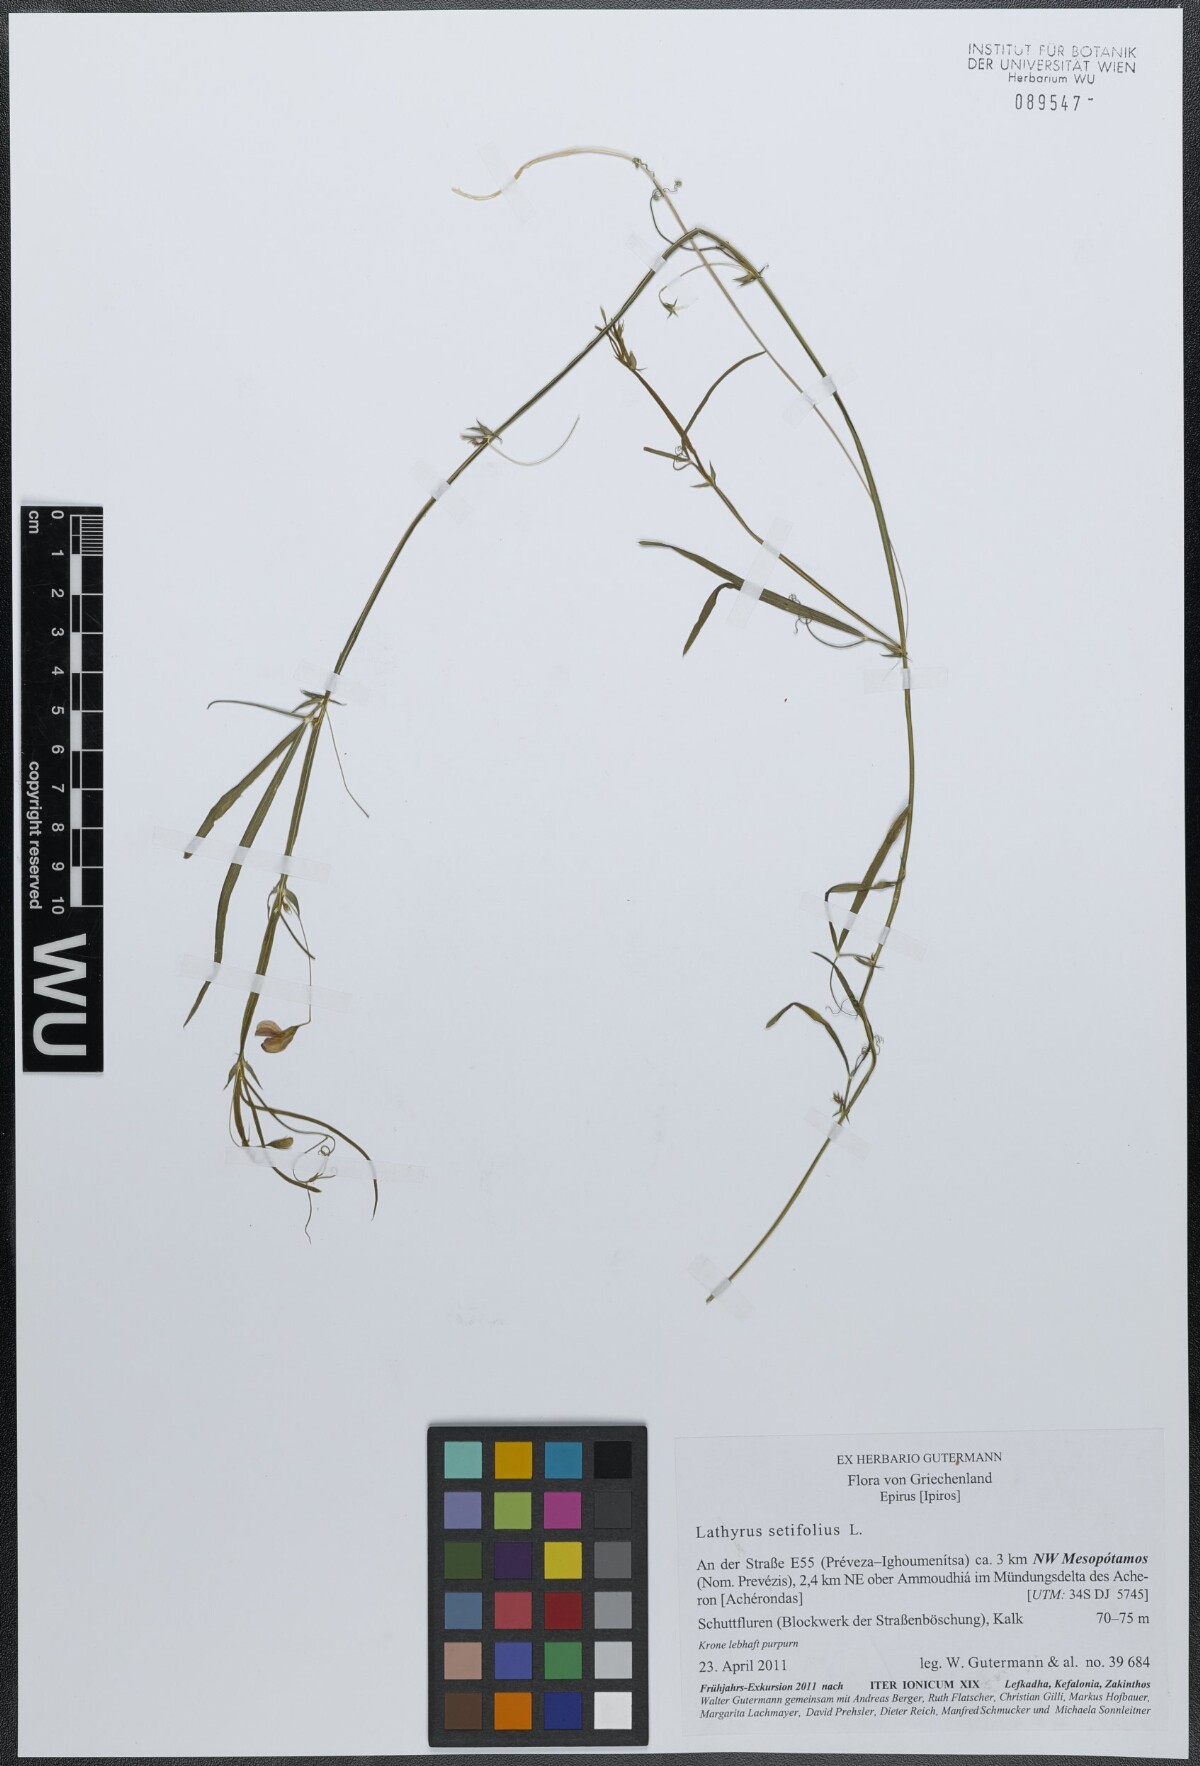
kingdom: Plantae
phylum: Tracheophyta
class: Magnoliopsida
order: Fabales
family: Fabaceae
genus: Lathyrus
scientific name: Lathyrus setifolius
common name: Brown vetchling
